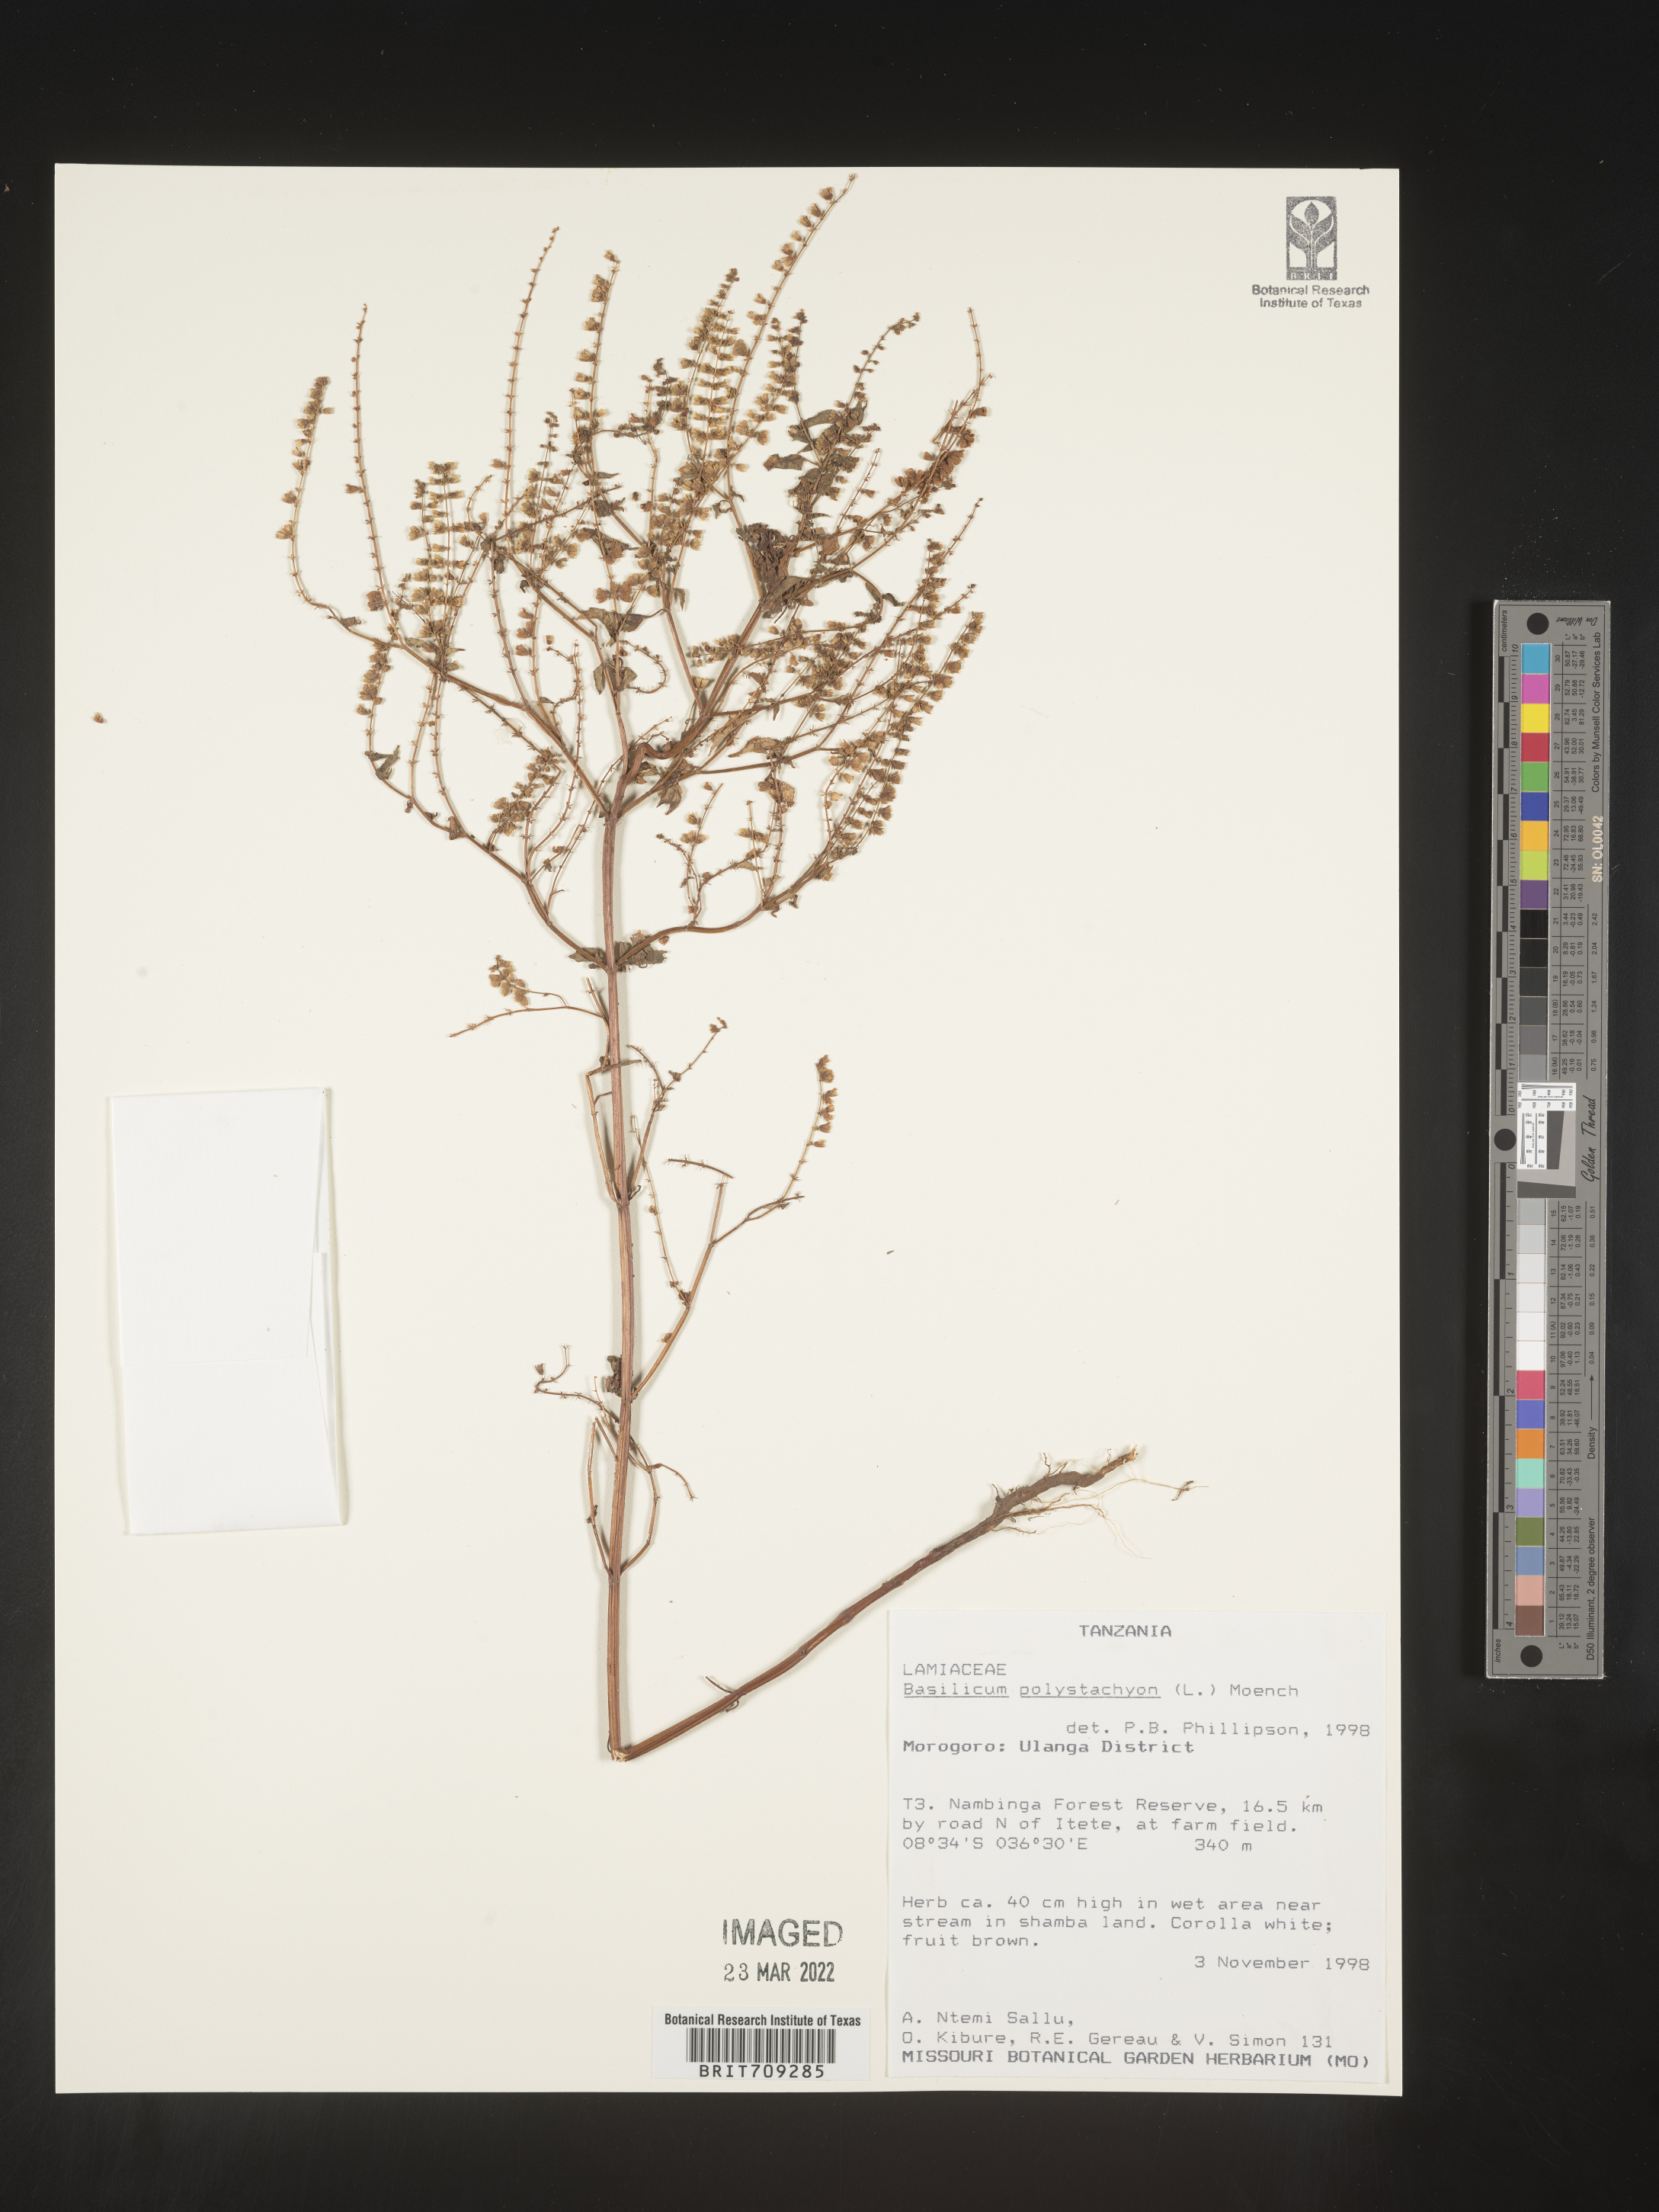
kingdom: Plantae
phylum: Tracheophyta
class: Magnoliopsida
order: Lamiales
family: Lamiaceae
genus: Basilicum
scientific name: Basilicum
